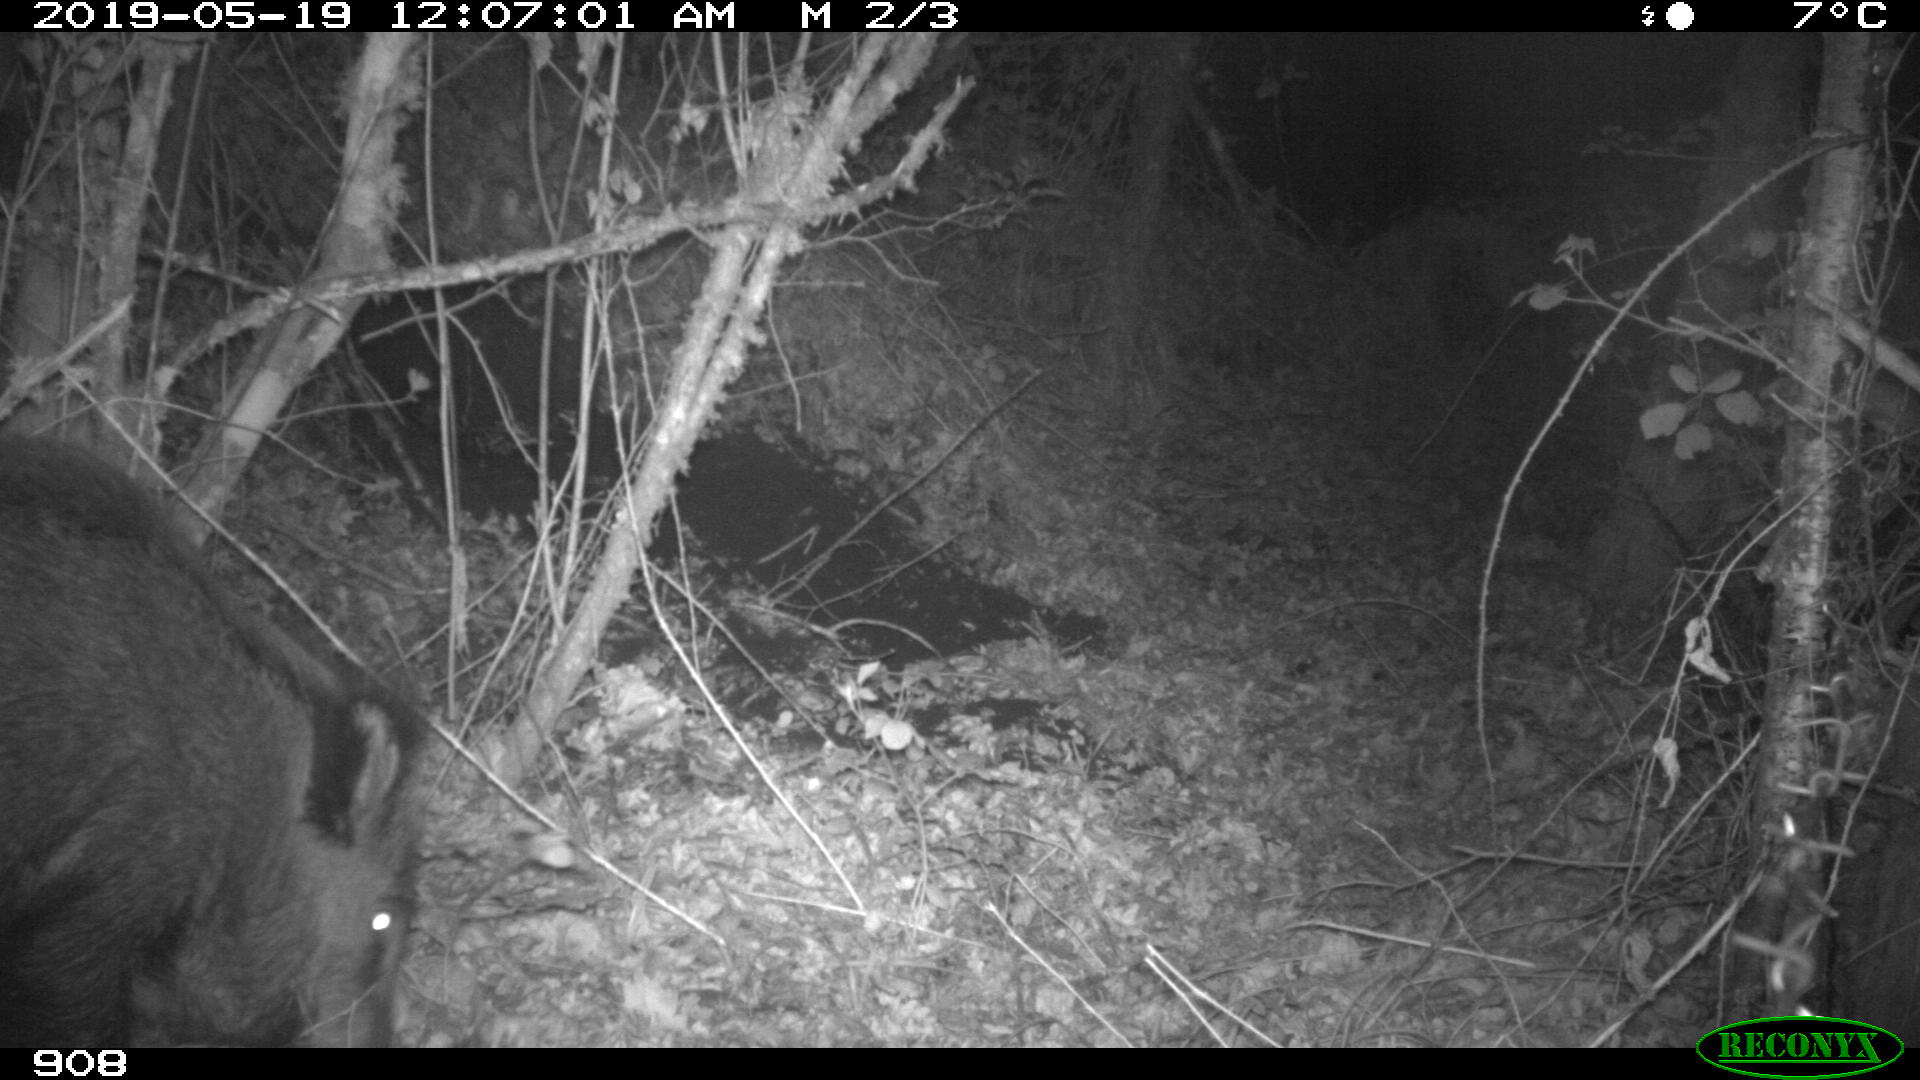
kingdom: Animalia
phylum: Chordata
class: Mammalia
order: Artiodactyla
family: Suidae
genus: Sus
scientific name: Sus scrofa
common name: Wild boar
